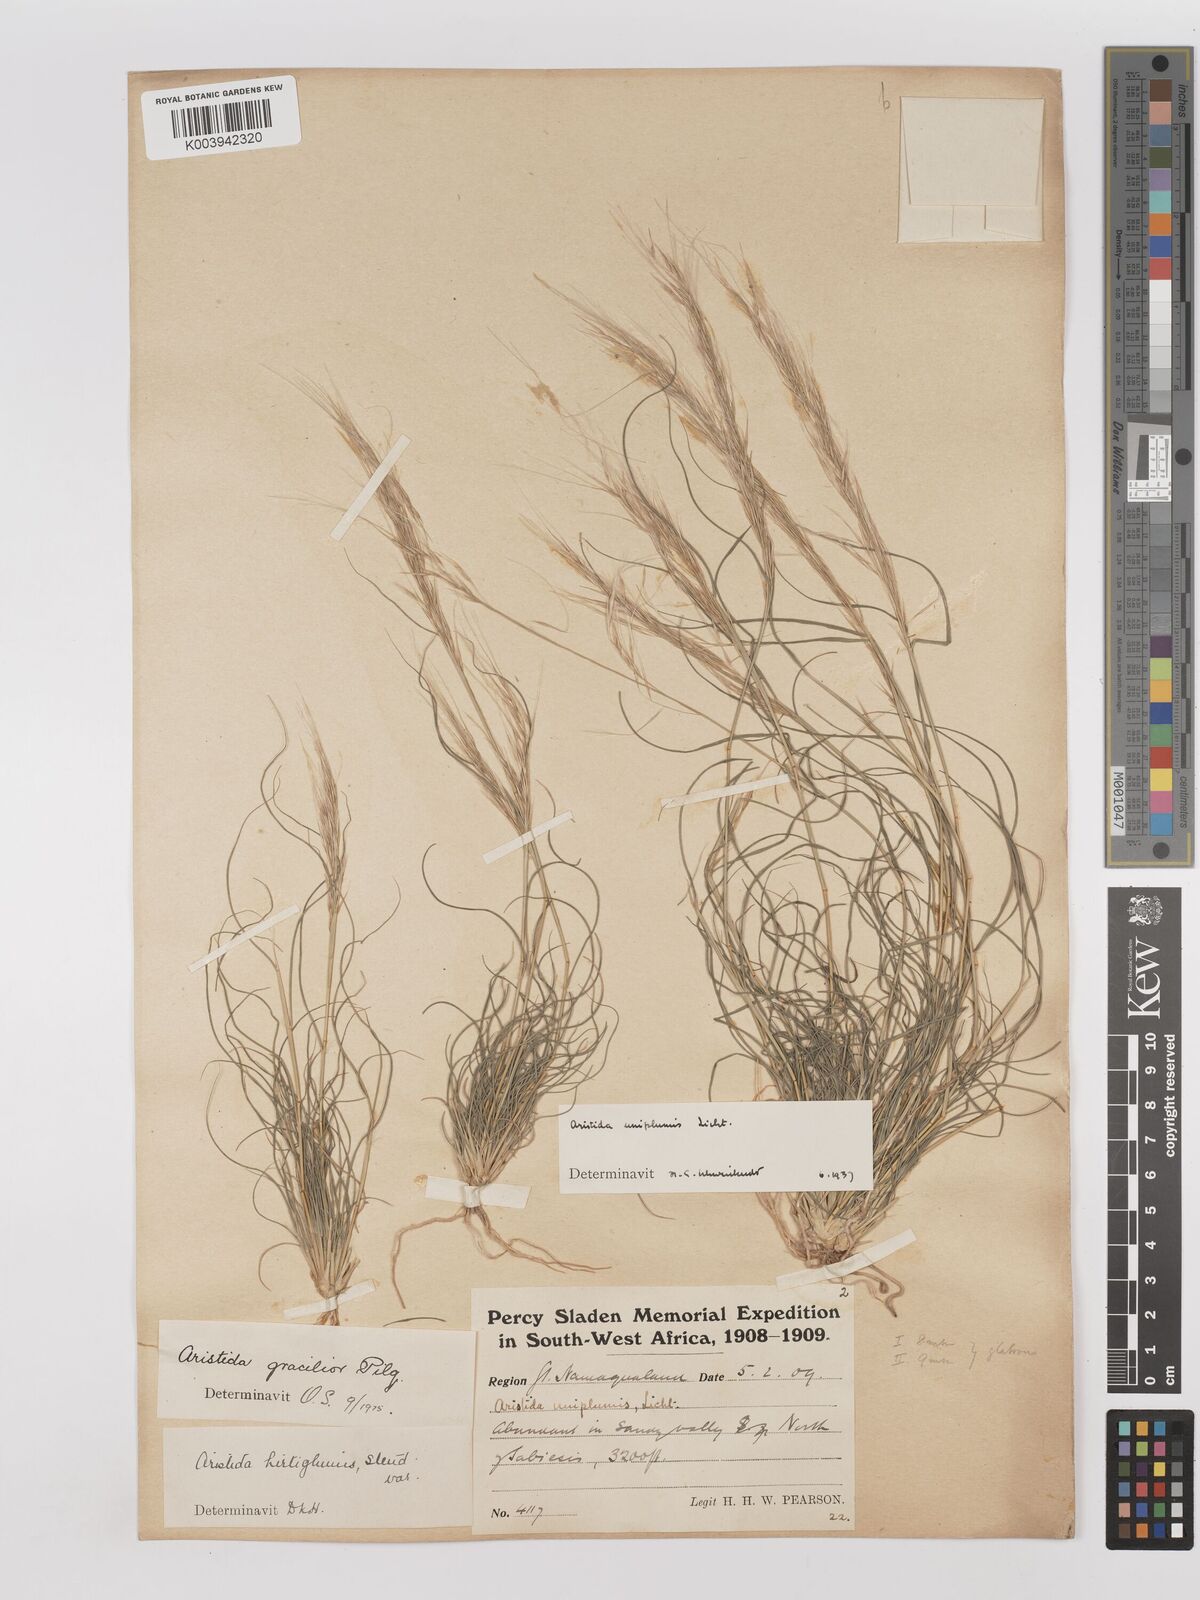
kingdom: Plantae
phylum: Tracheophyta
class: Liliopsida
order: Poales
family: Poaceae
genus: Stipagrostis
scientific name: Stipagrostis uniplumis
